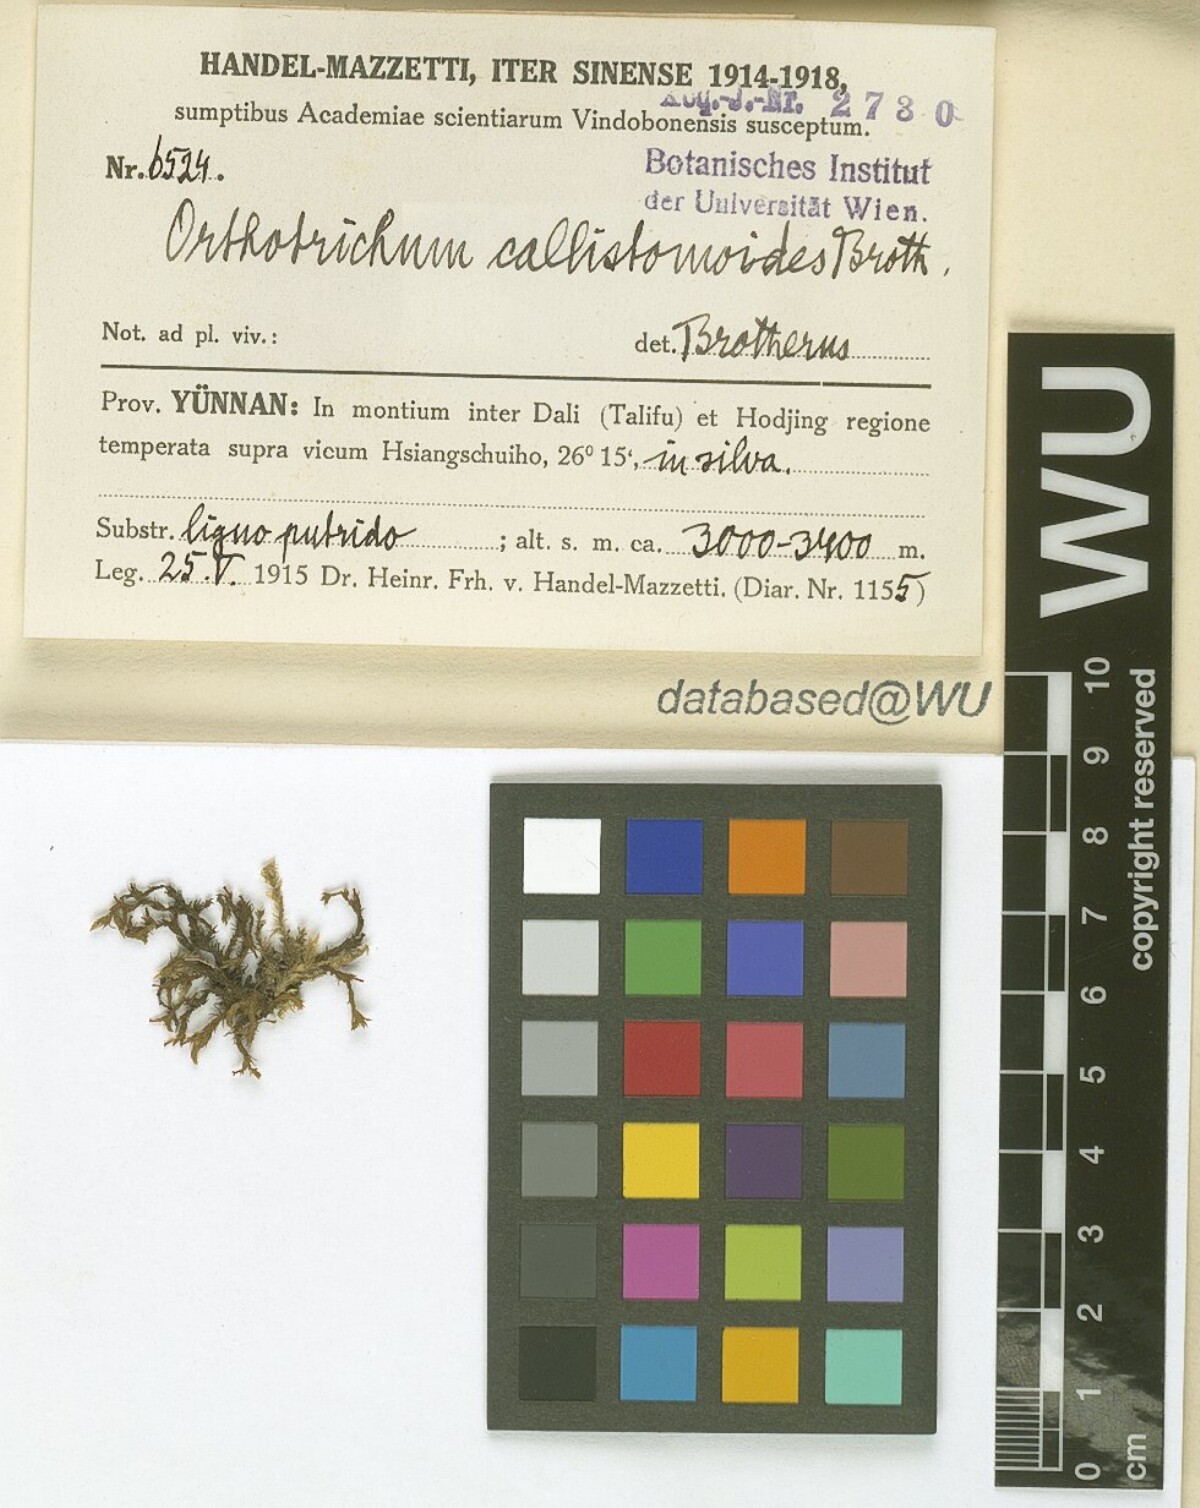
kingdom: Plantae
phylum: Bryophyta
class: Bryopsida
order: Orthotrichales
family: Orthotrichaceae
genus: Orthotrichum
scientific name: Orthotrichum callistomum
